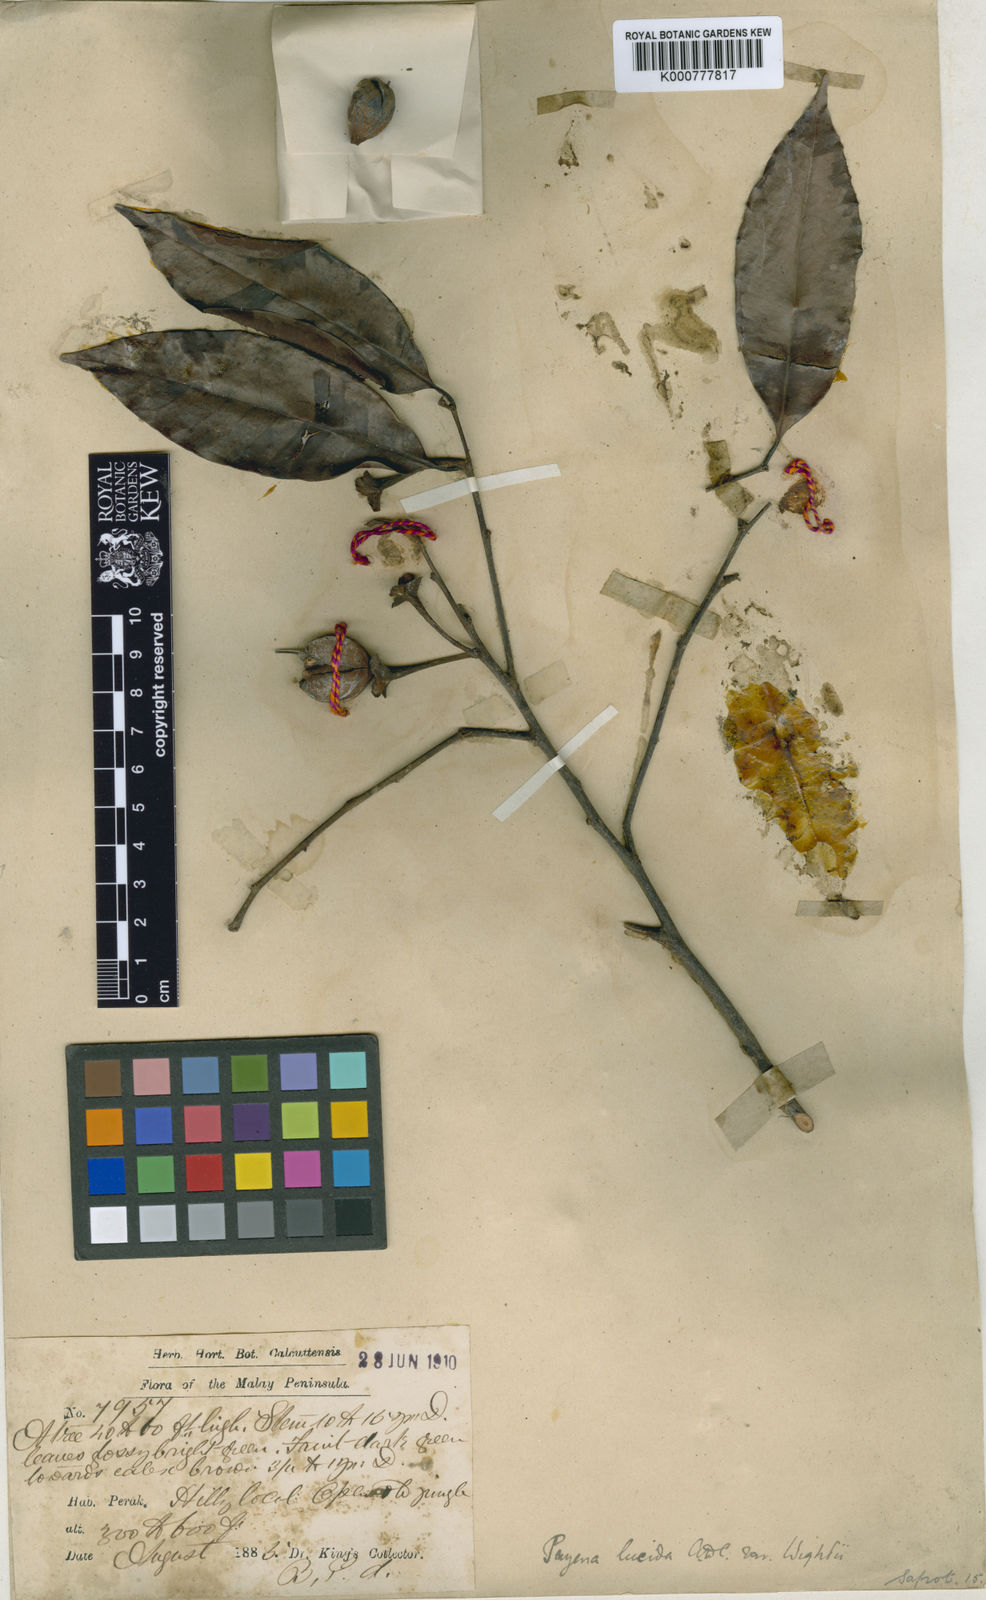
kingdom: Plantae
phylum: Tracheophyta
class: Magnoliopsida
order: Ericales
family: Sapotaceae
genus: Payena
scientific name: Payena lucida
